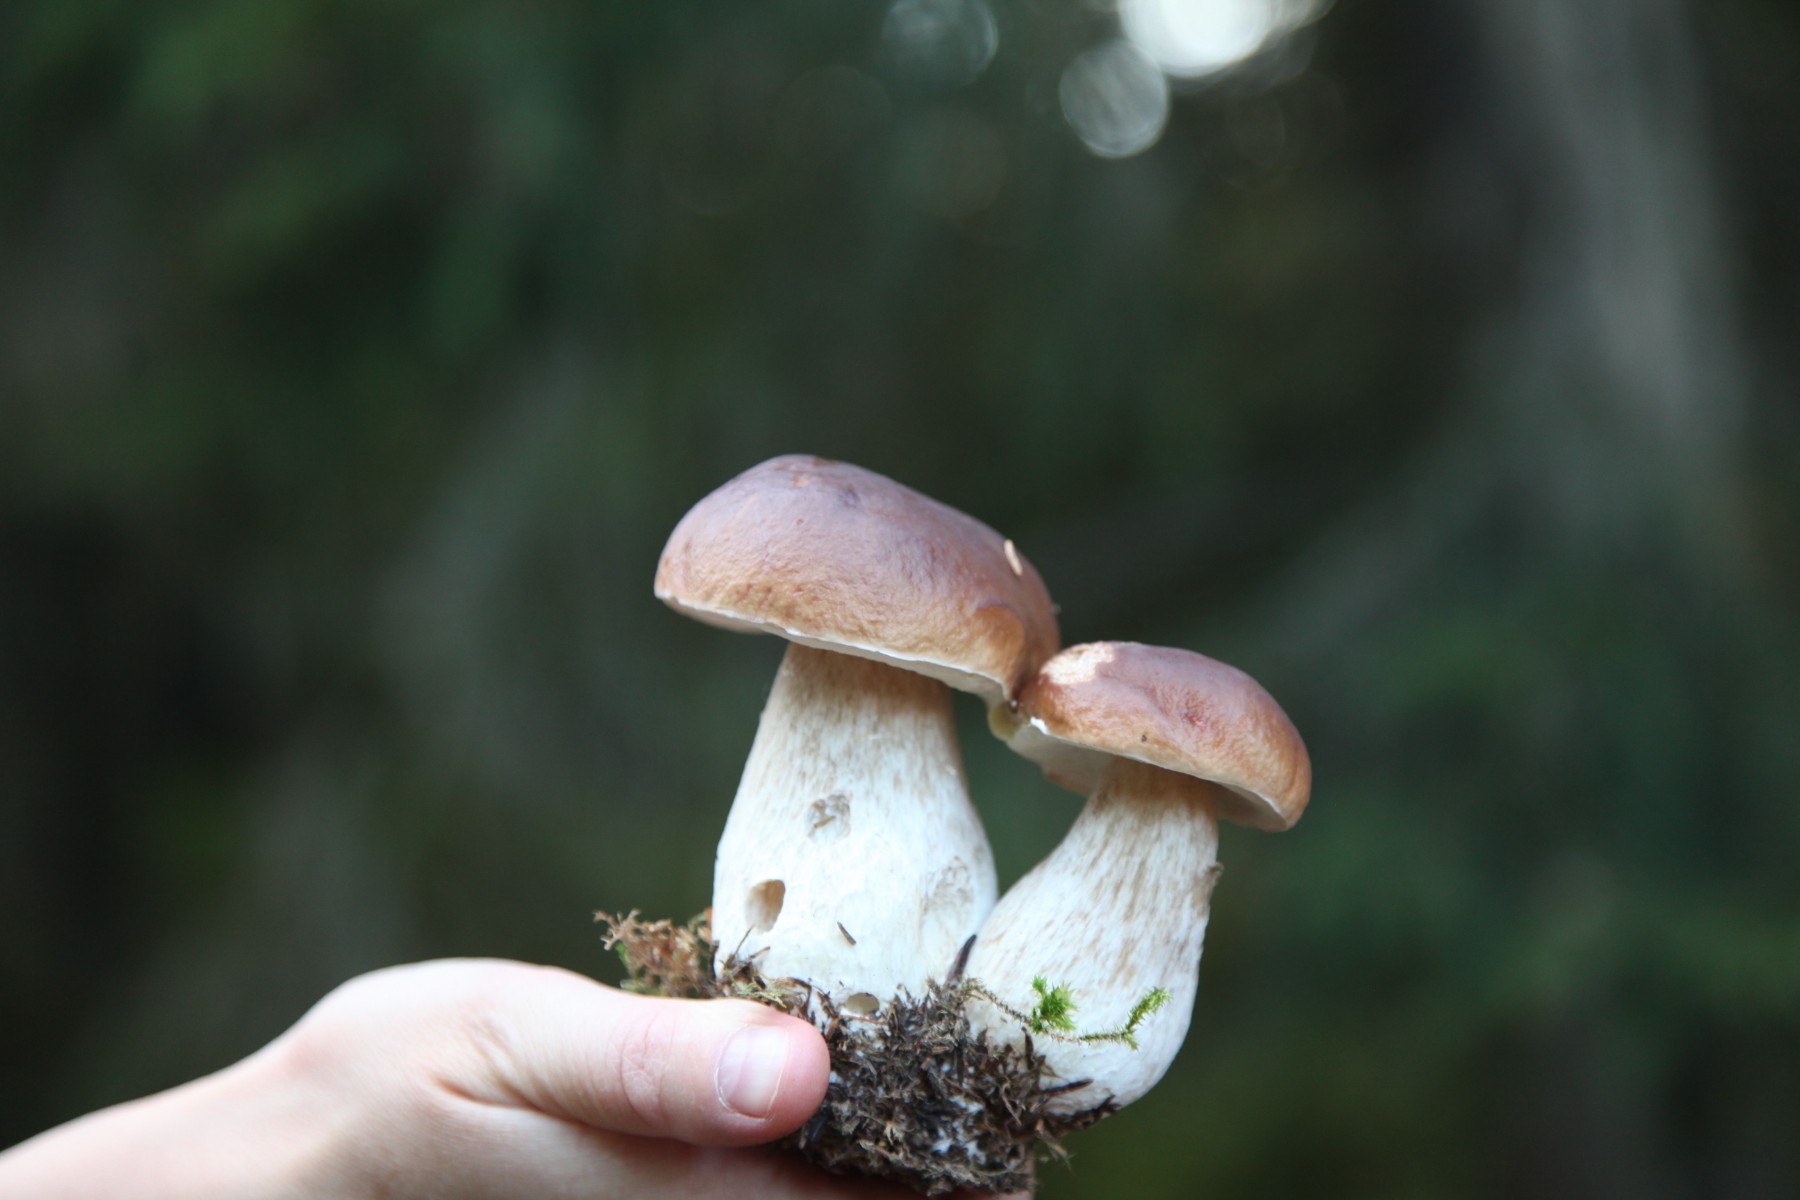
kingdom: Fungi
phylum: Basidiomycota
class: Agaricomycetes
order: Boletales
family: Boletaceae
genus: Boletus
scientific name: Boletus edulis
